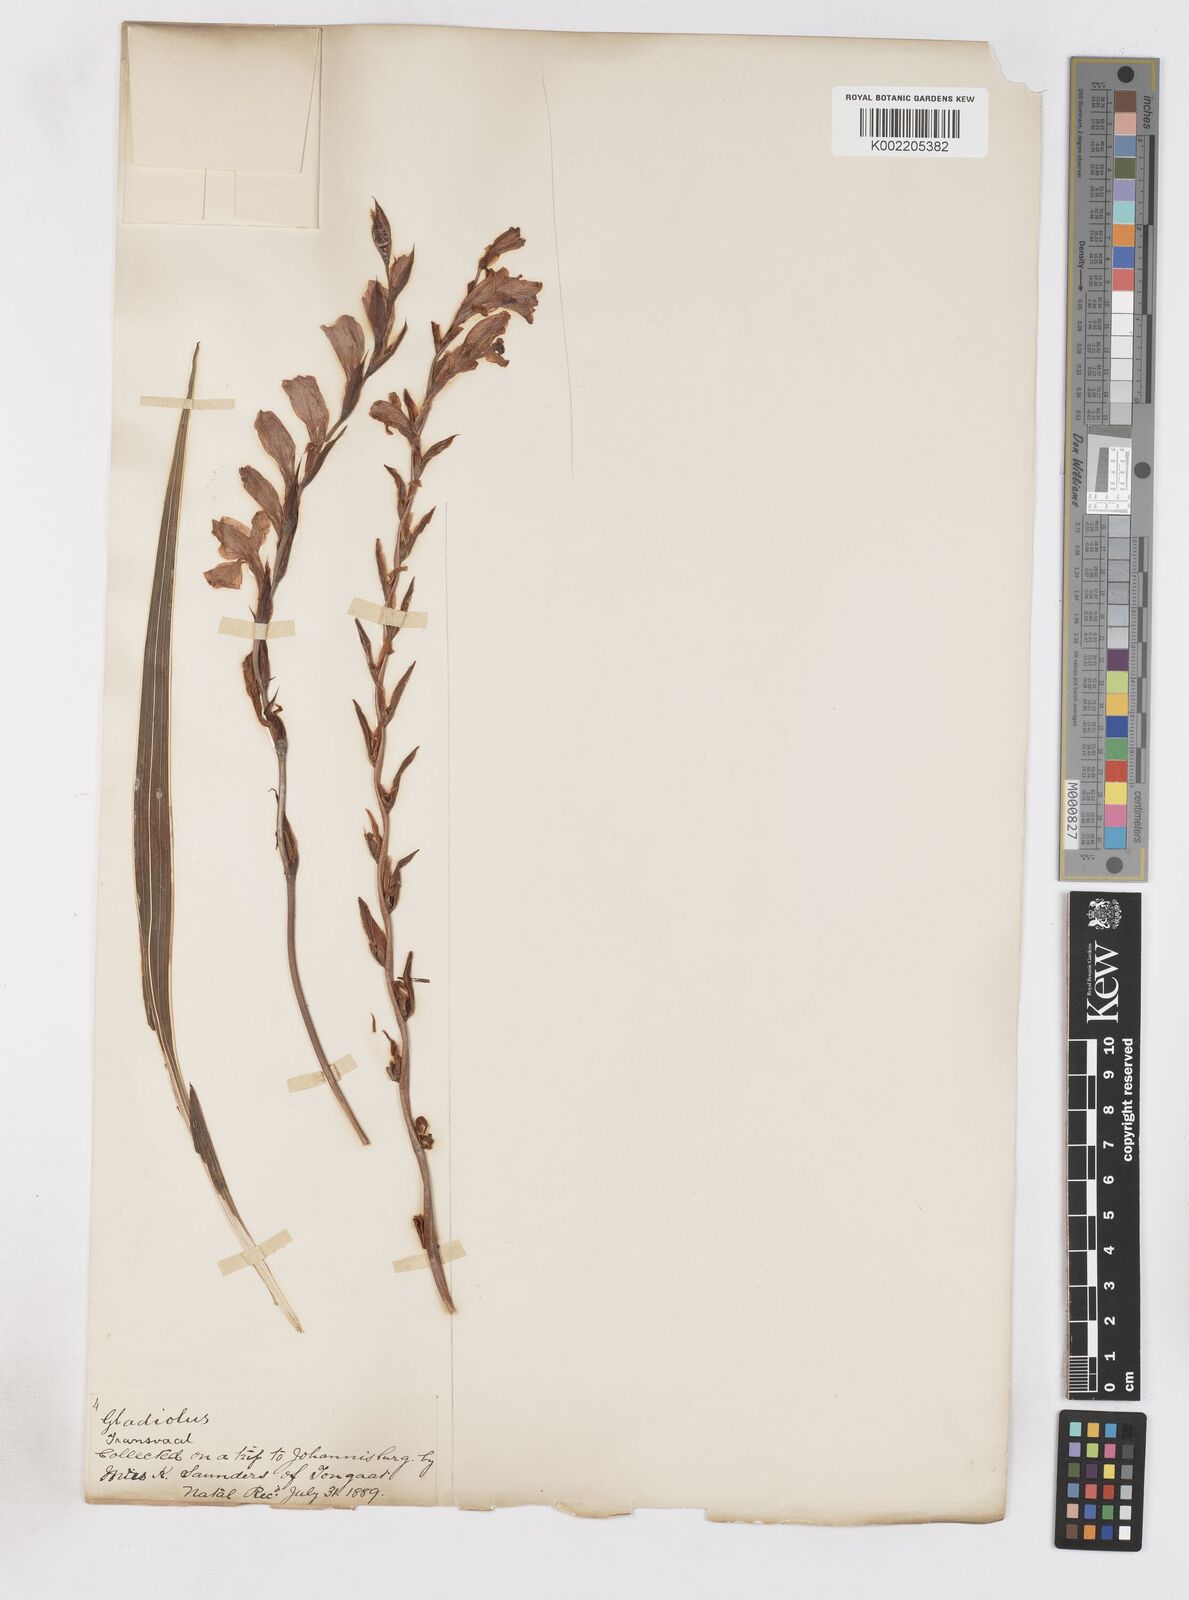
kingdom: Plantae
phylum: Tracheophyta
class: Liliopsida
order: Asparagales
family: Iridaceae
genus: Gladiolus
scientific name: Gladiolus crassifolius
